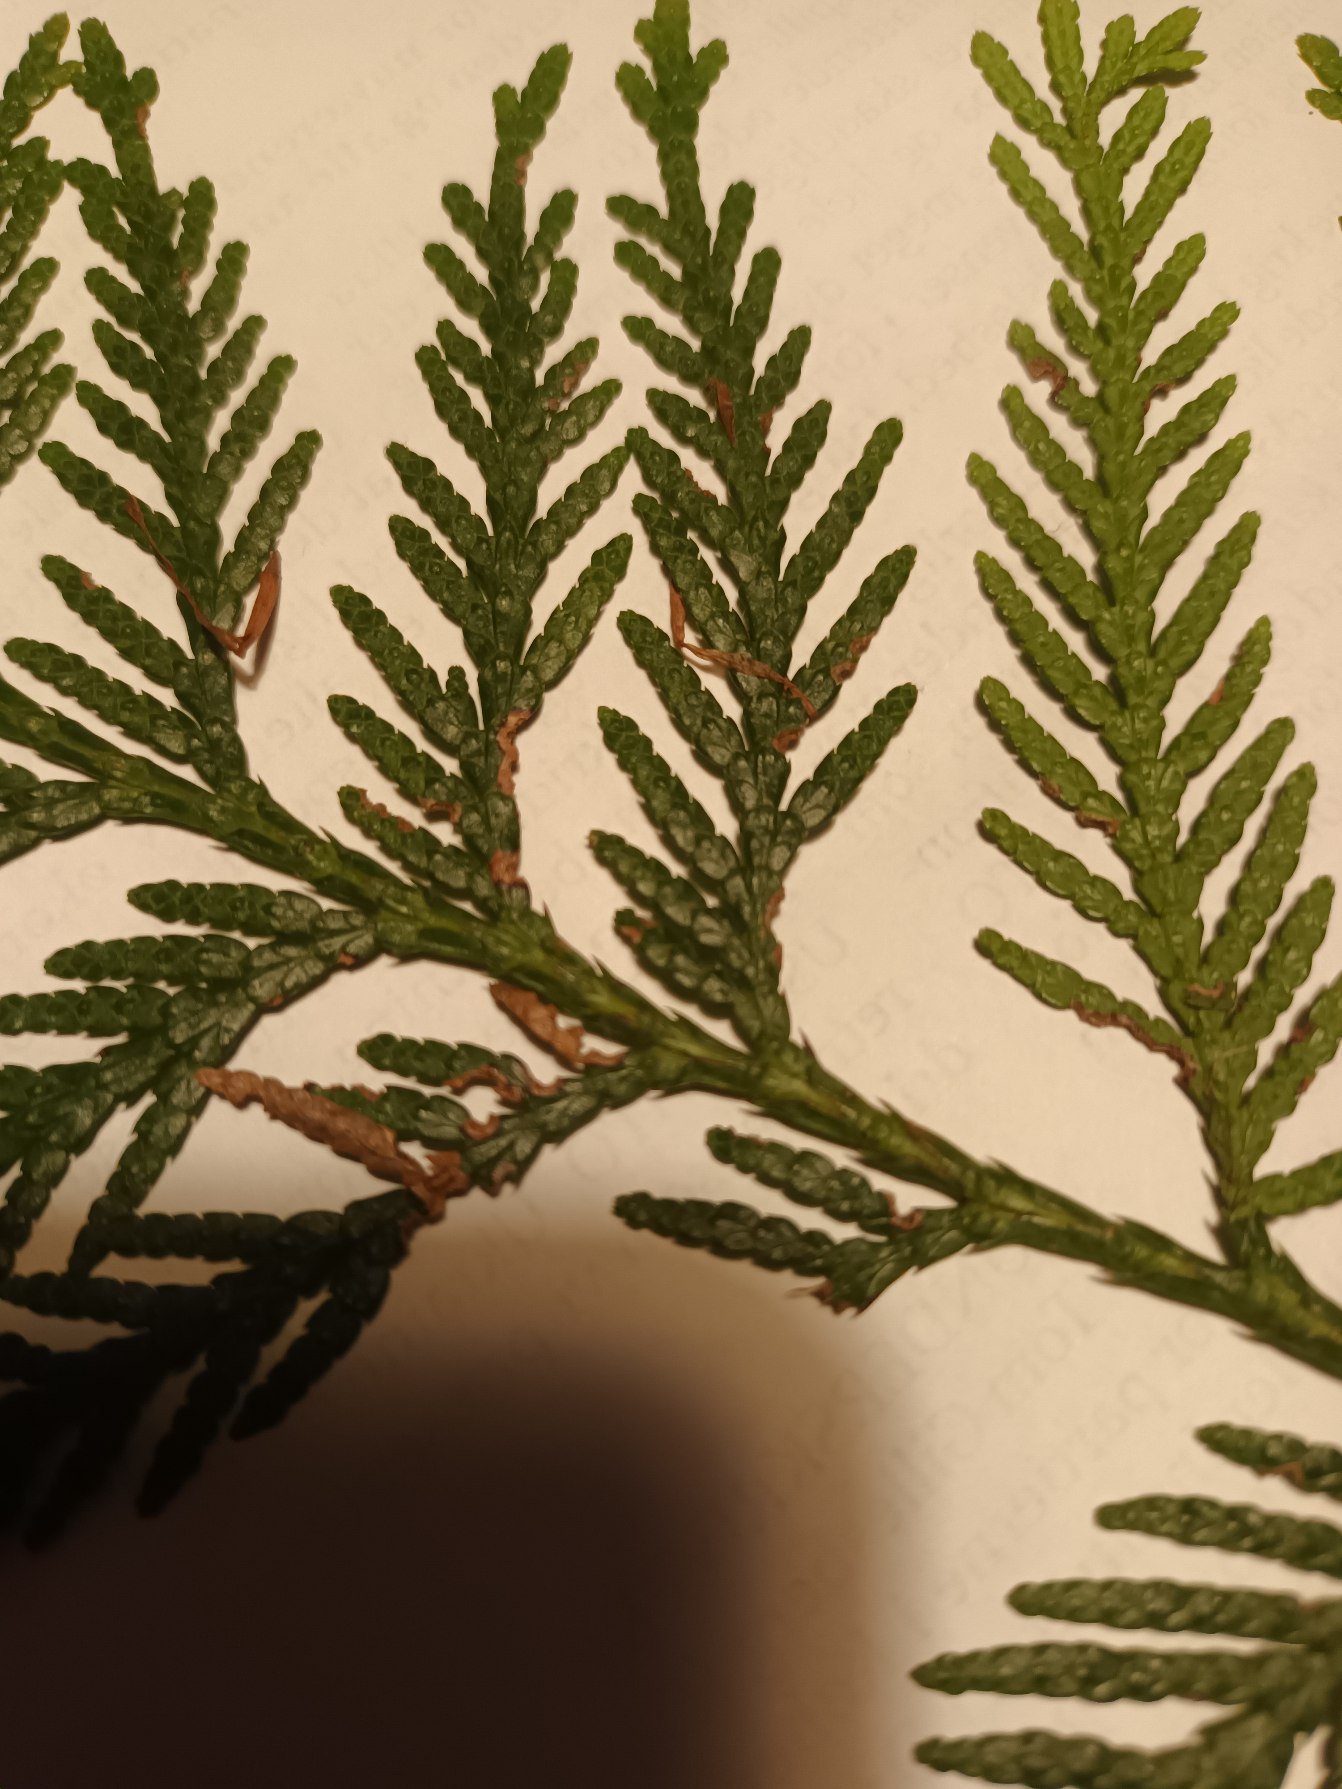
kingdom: Plantae
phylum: Tracheophyta
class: Pinopsida
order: Pinales
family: Cupressaceae
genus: Thuja
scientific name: Thuja occidentalis
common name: Almindelig thuja
